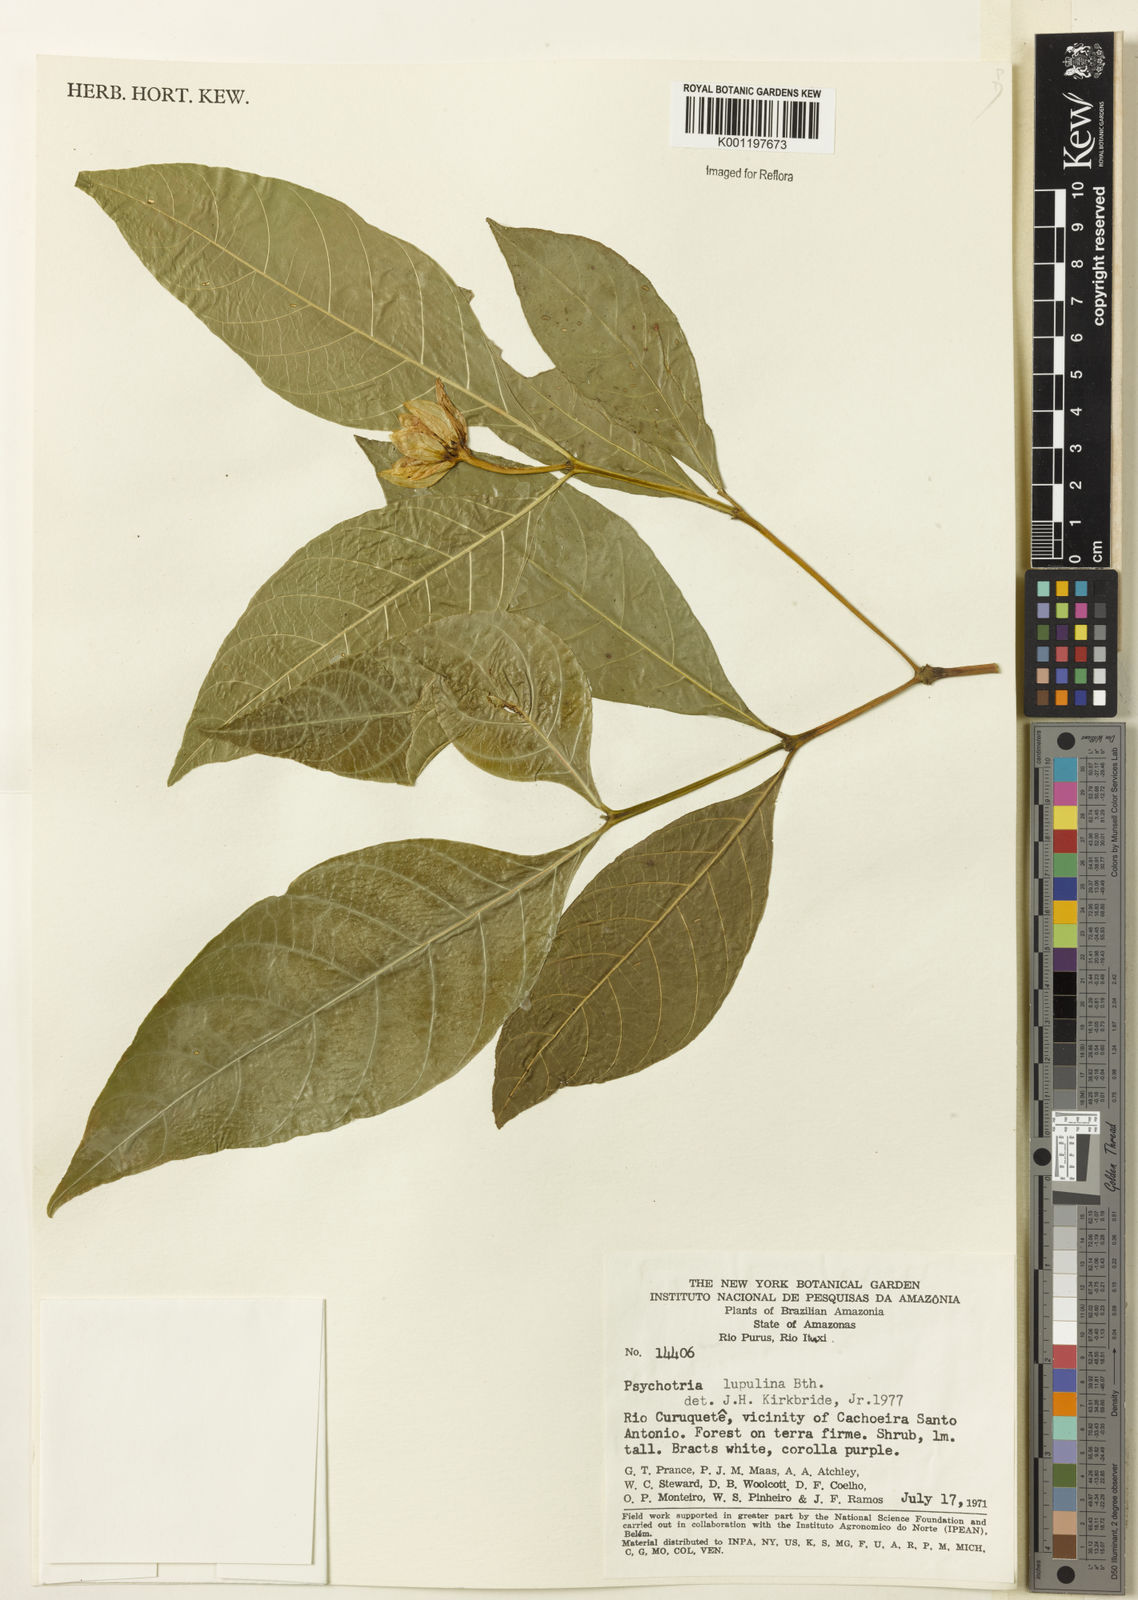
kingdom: Plantae
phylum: Tracheophyta
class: Magnoliopsida
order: Gentianales
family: Rubiaceae
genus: Palicourea
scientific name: Palicourea justiciifolia
